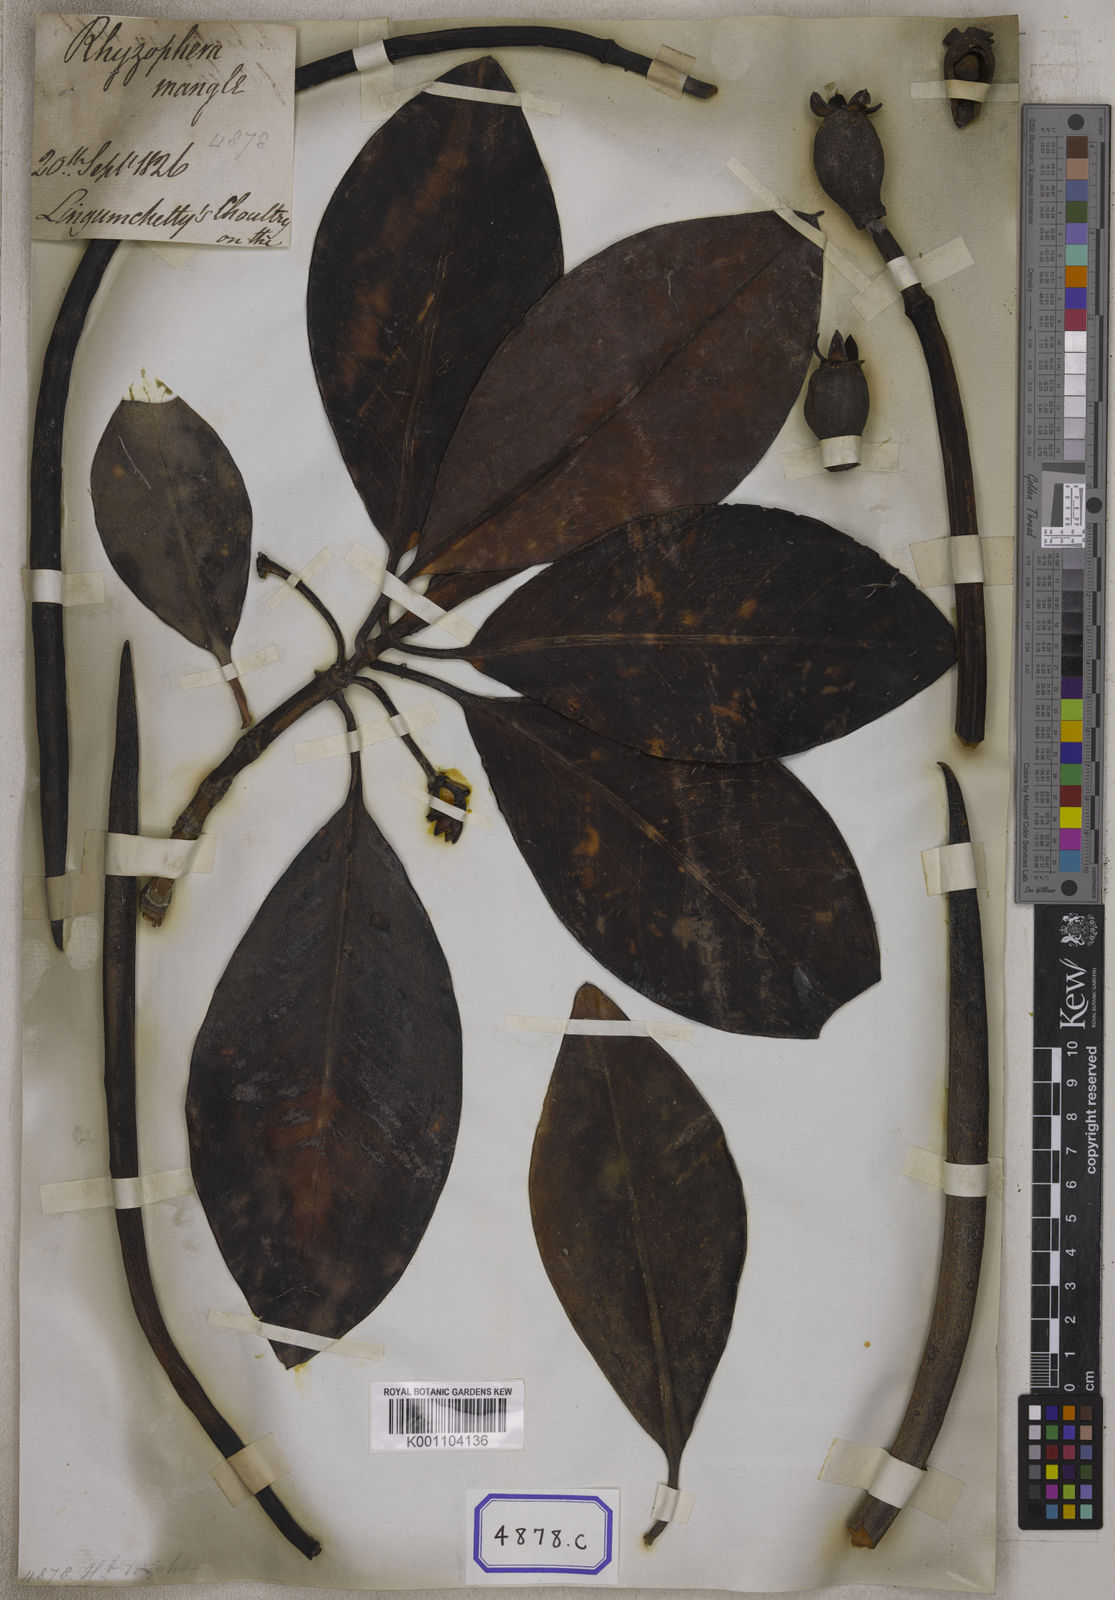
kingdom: Plantae
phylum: Tracheophyta
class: Magnoliopsida
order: Malpighiales
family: Rhizophoraceae
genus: Rhizophora
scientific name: Rhizophora
